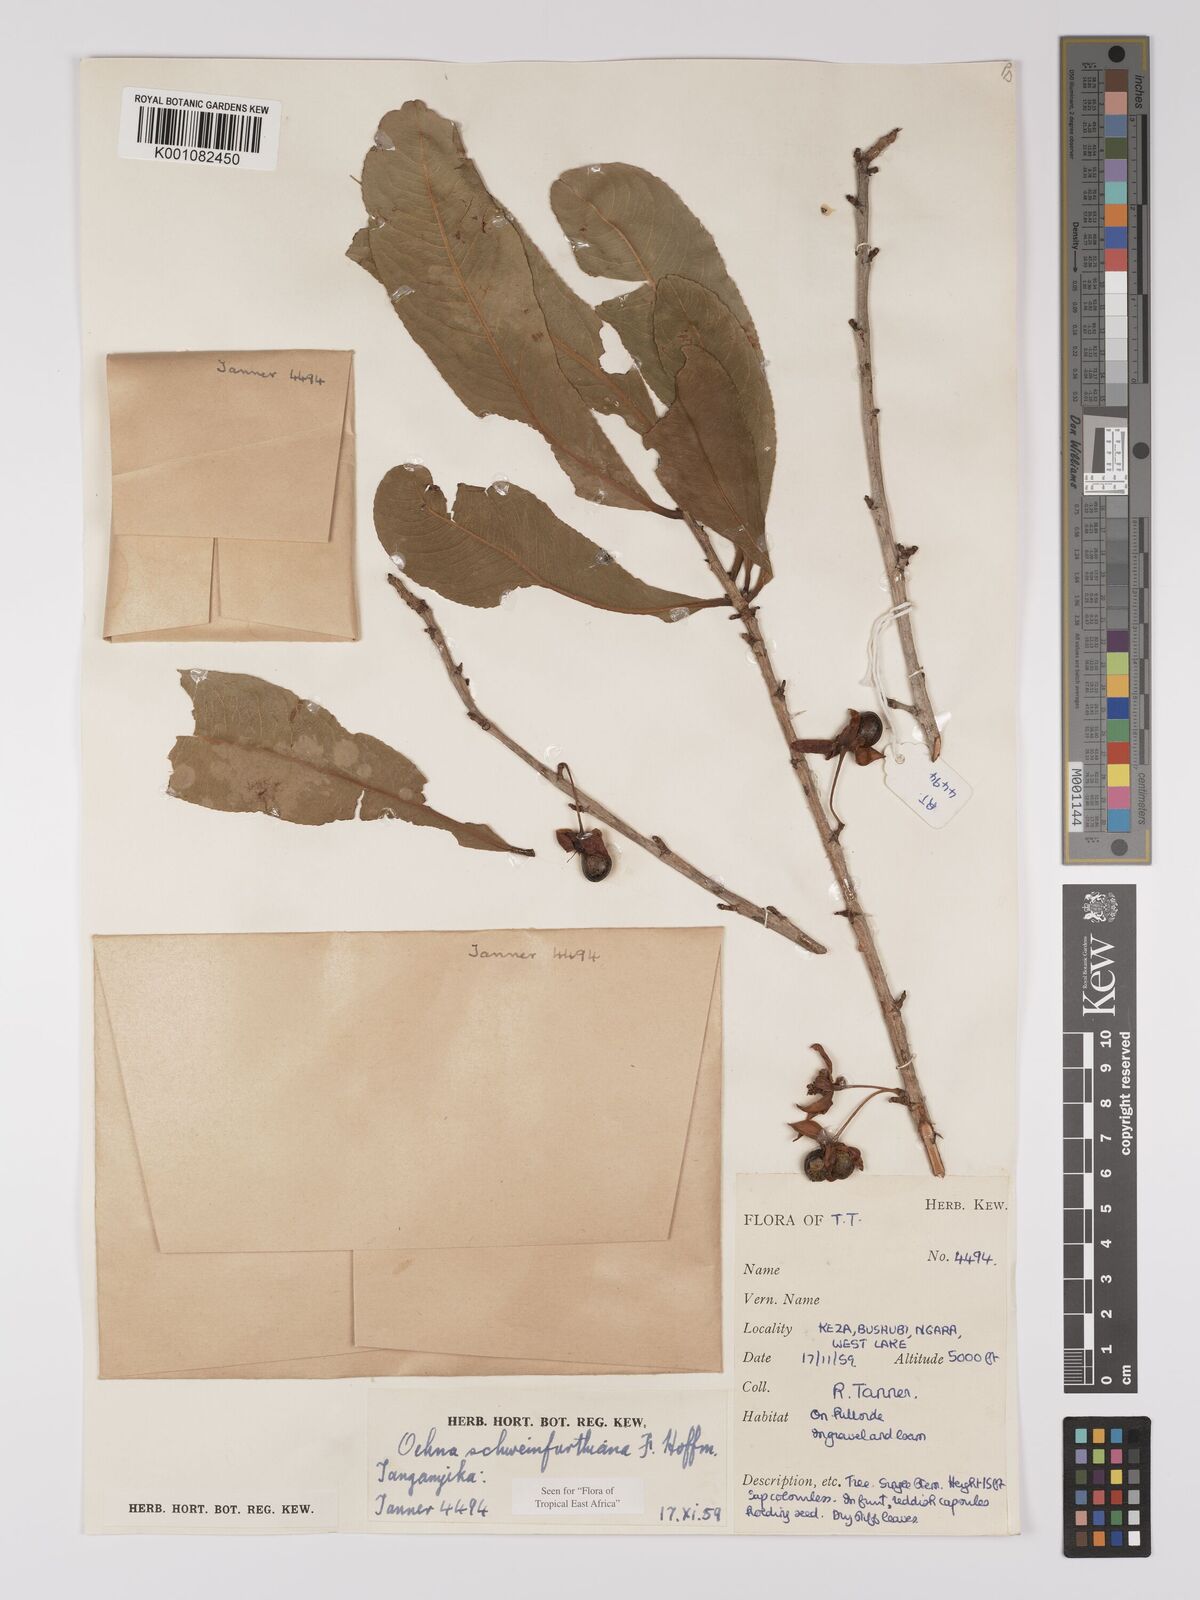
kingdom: Plantae
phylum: Tracheophyta
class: Magnoliopsida
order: Malpighiales
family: Ochnaceae
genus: Ochna
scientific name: Ochna schweinfurthiana
